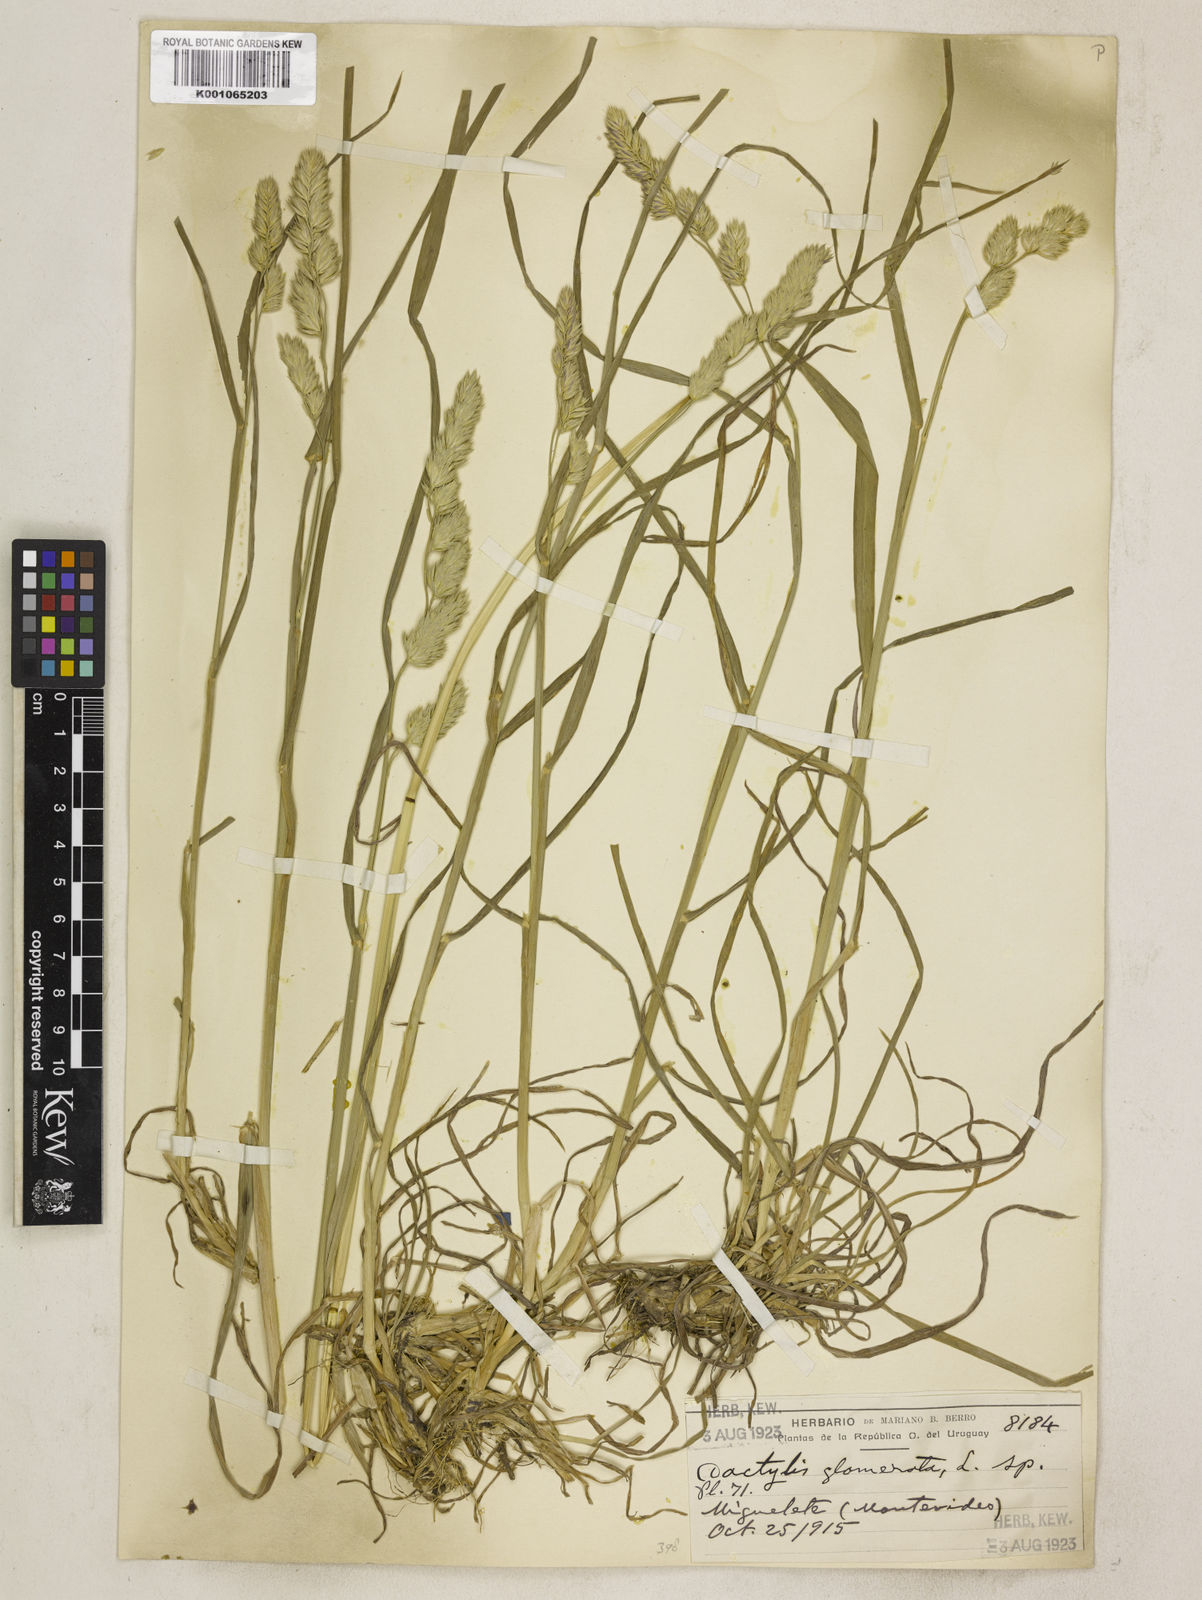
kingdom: Plantae
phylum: Tracheophyta
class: Liliopsida
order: Poales
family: Poaceae
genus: Dactylis
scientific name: Dactylis glomerata
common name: Orchardgrass
